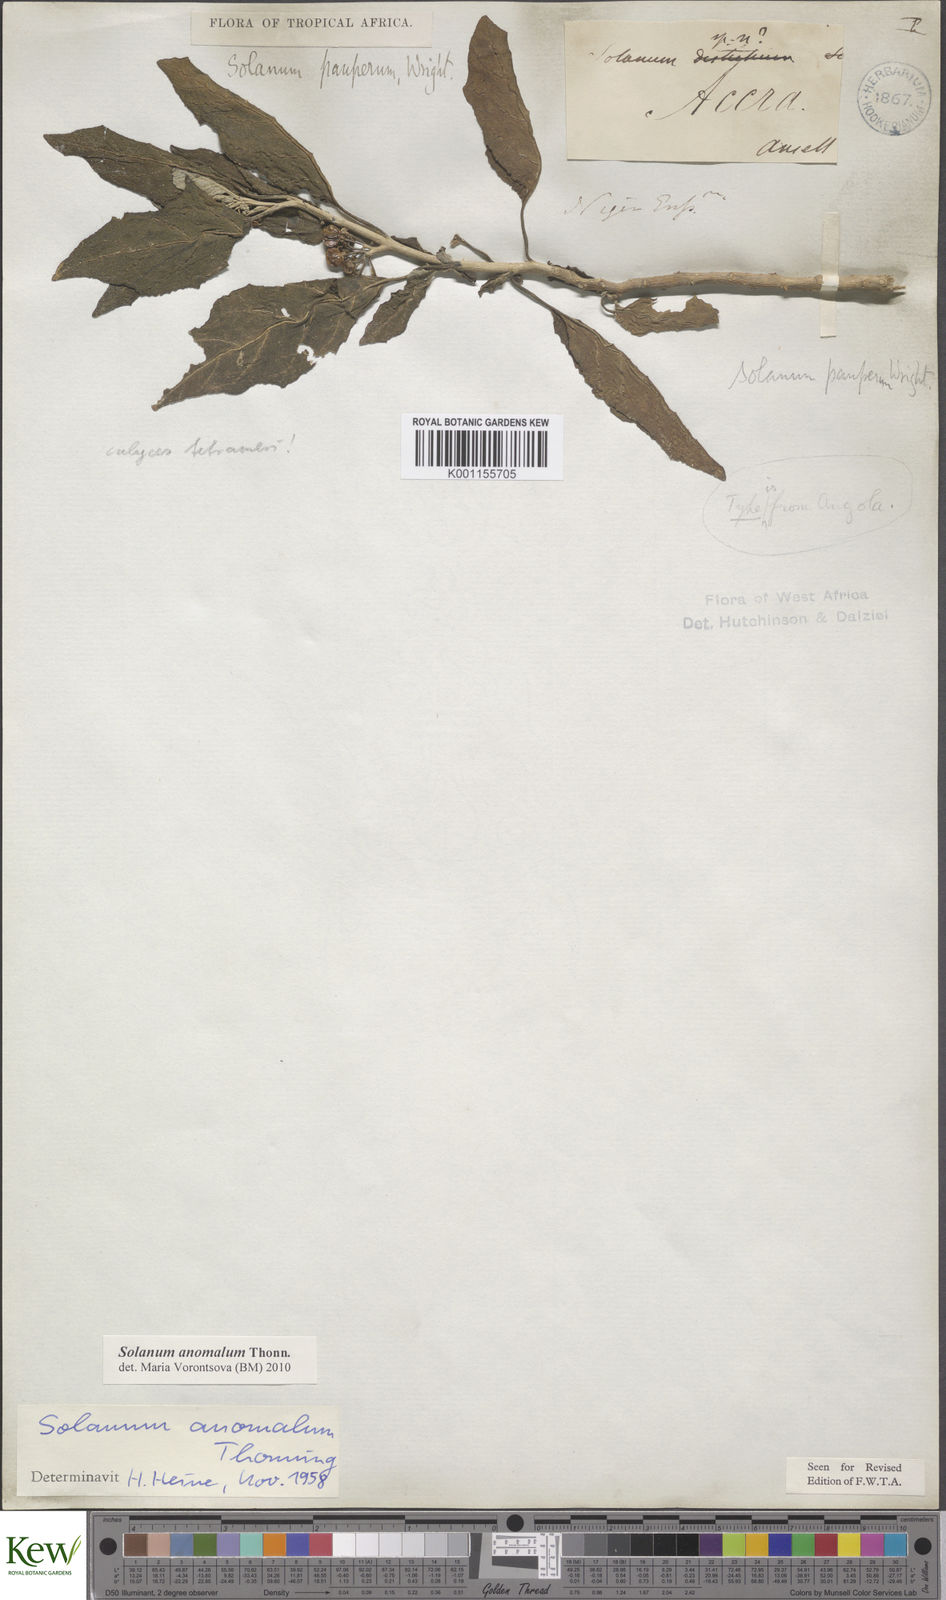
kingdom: Plantae
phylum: Tracheophyta
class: Magnoliopsida
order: Solanales
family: Solanaceae
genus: Solanum
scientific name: Solanum anomalum
